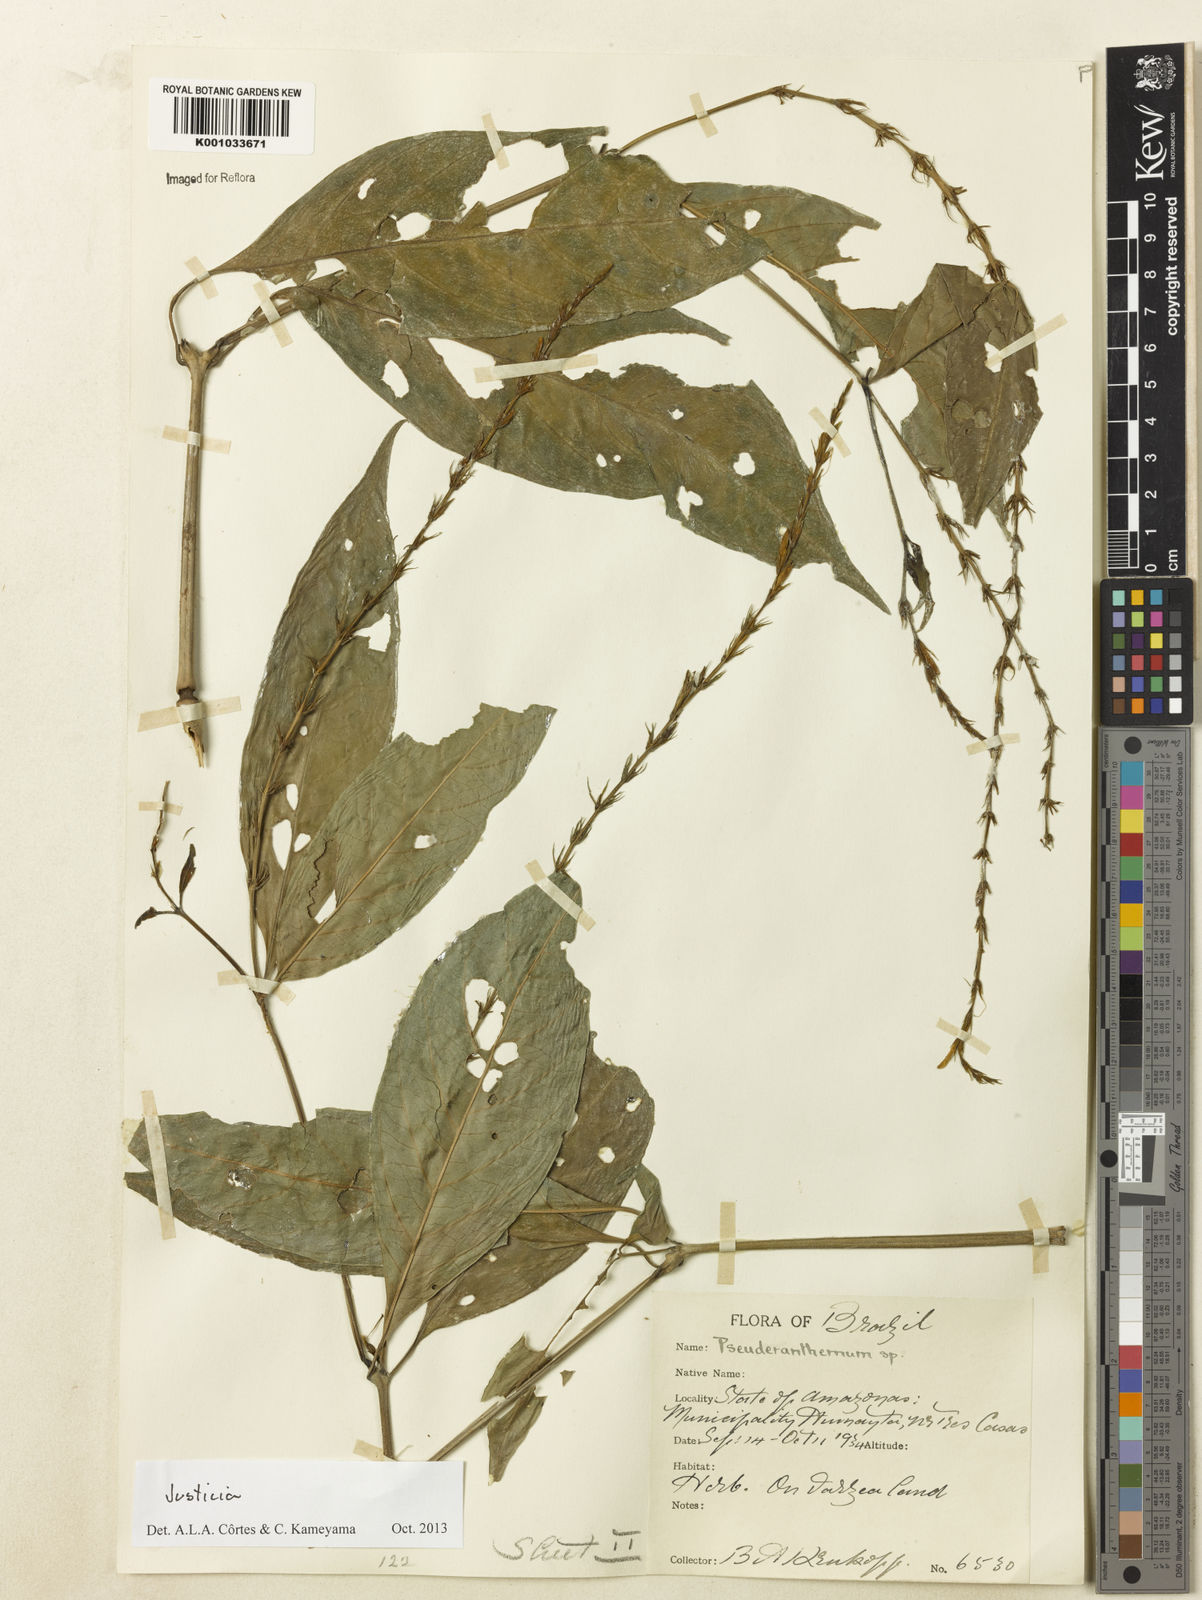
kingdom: Plantae
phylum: Tracheophyta
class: Magnoliopsida
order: Lamiales
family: Acanthaceae
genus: Justicia
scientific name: Justicia
